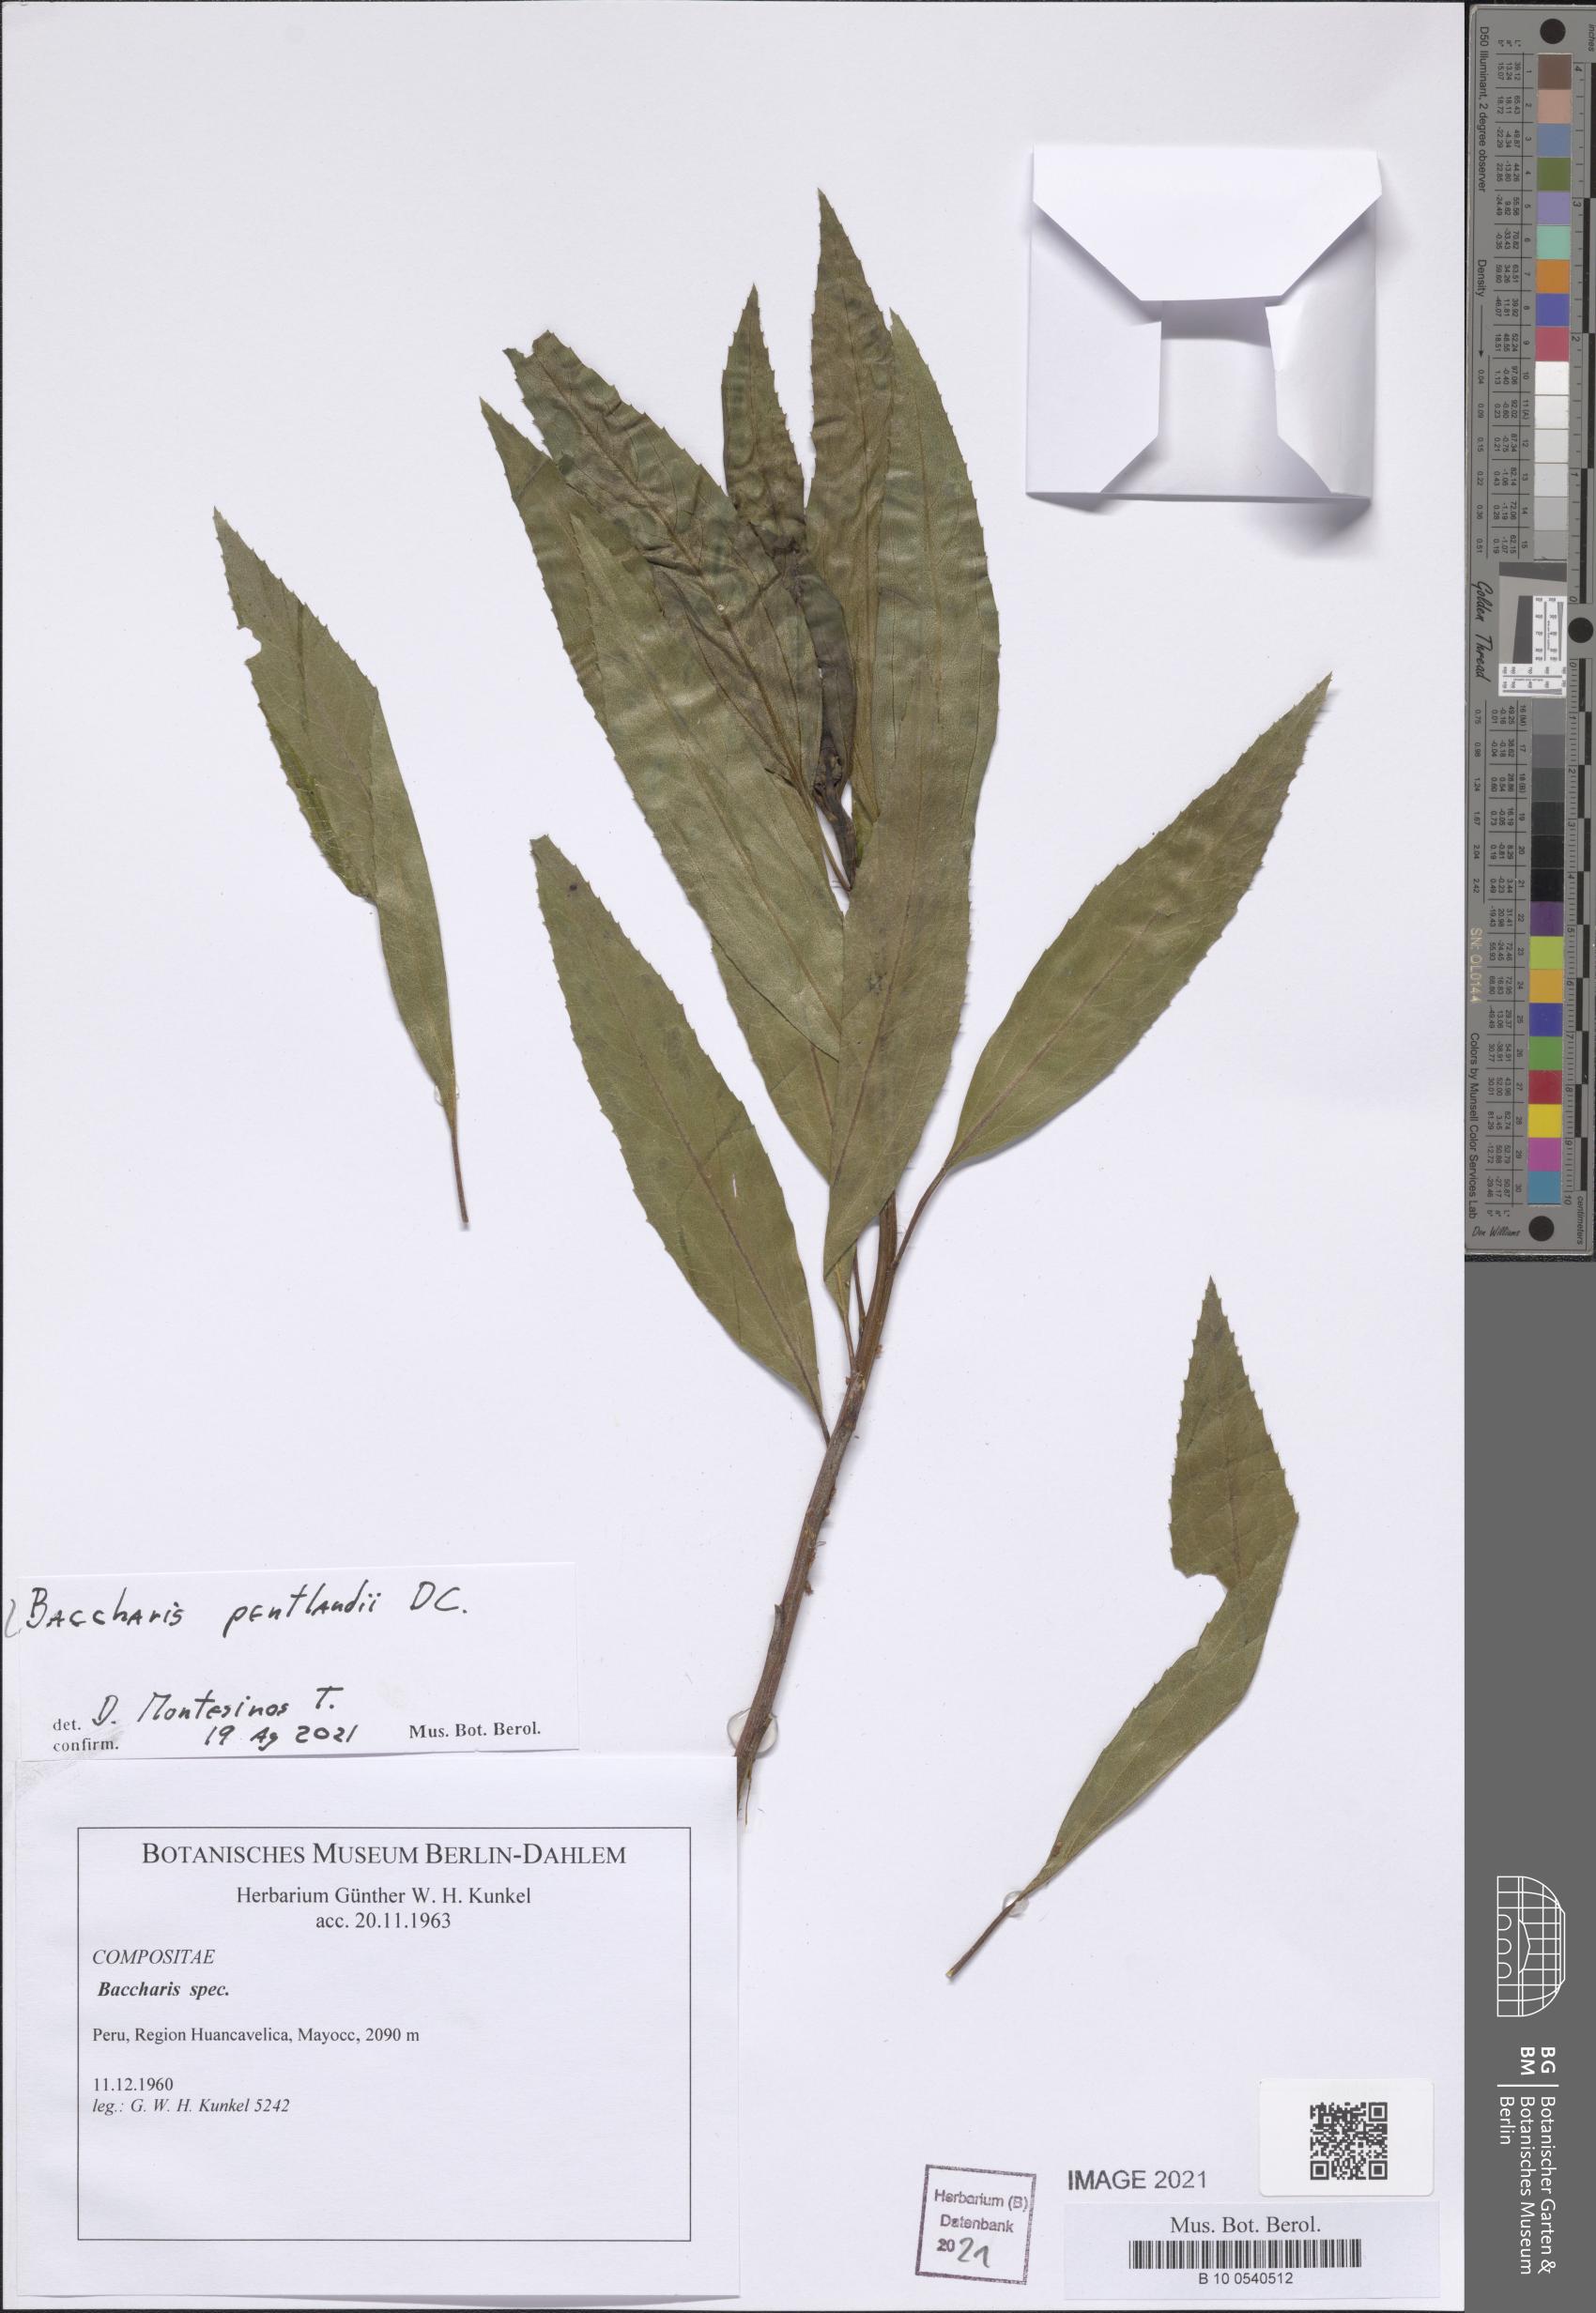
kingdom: Plantae
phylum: Tracheophyta
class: Magnoliopsida
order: Asterales
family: Asteraceae
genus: Baccharis
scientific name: Baccharis pentlandii
